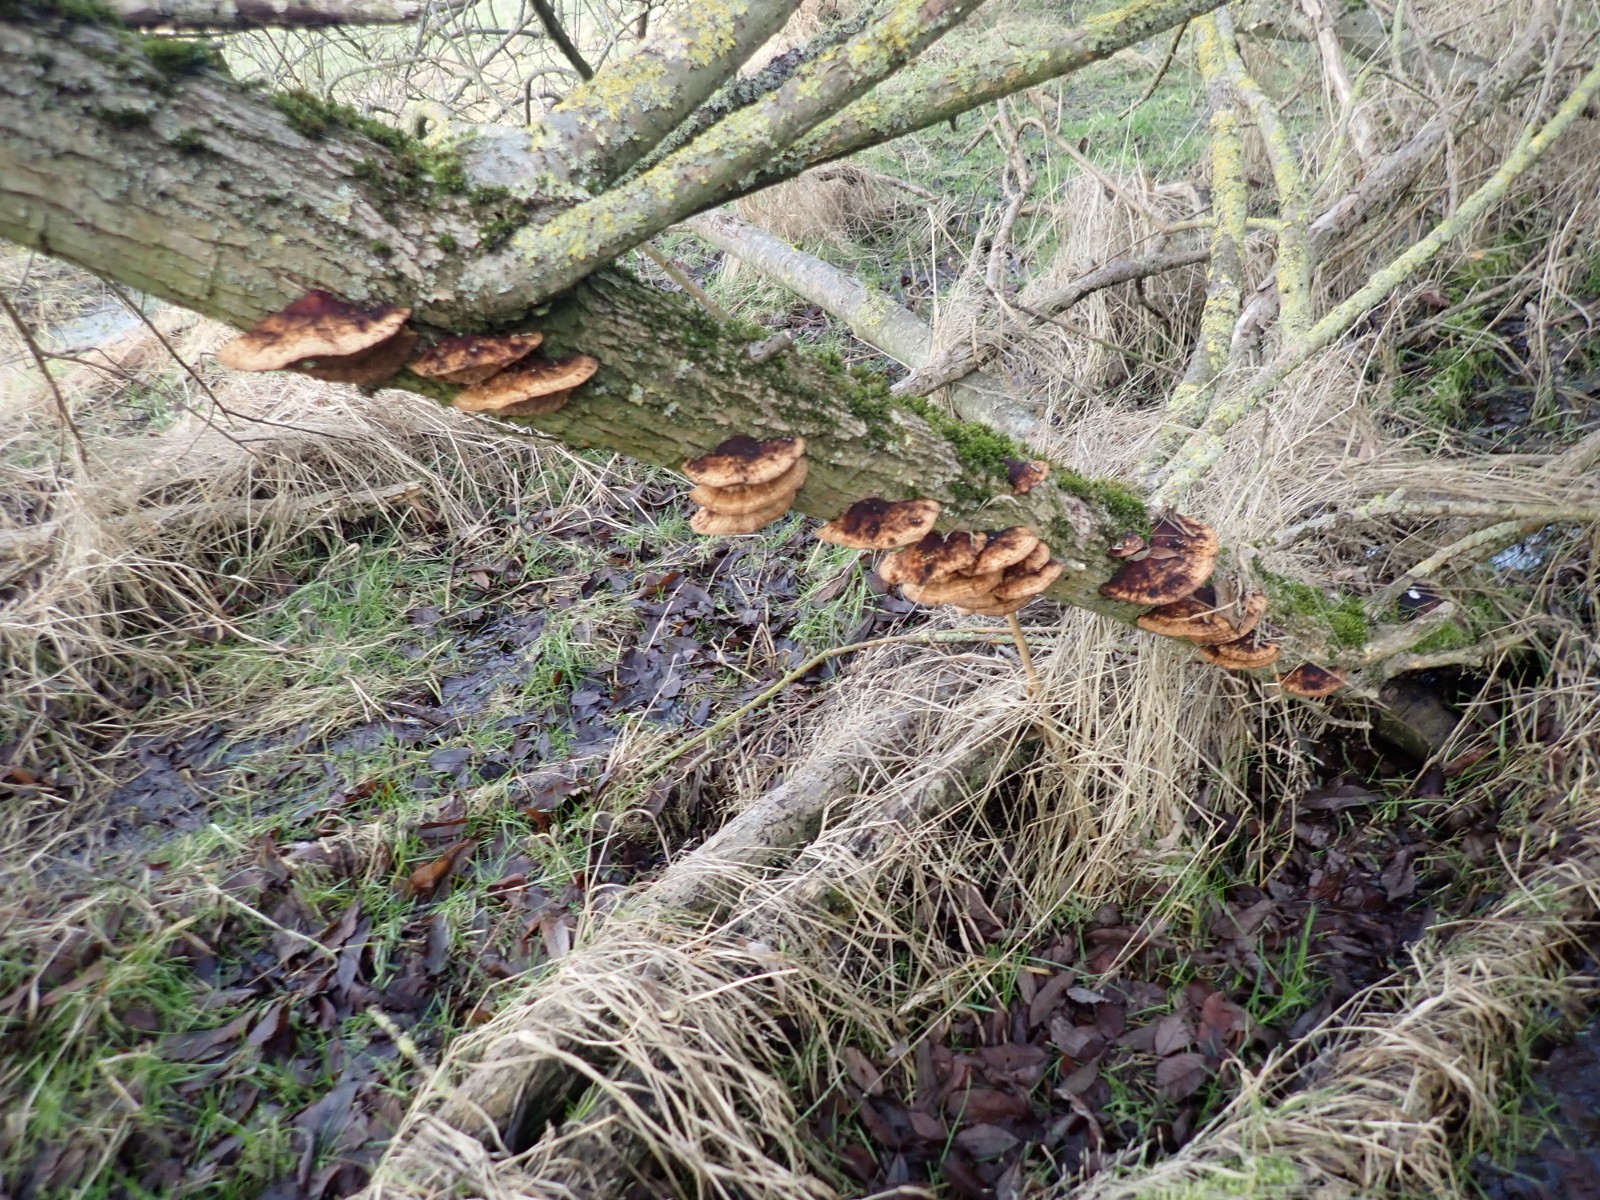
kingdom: Fungi
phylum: Basidiomycota
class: Agaricomycetes
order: Polyporales
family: Polyporaceae
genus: Daedaleopsis
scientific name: Daedaleopsis confragosa
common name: rødmende læderporesvamp
